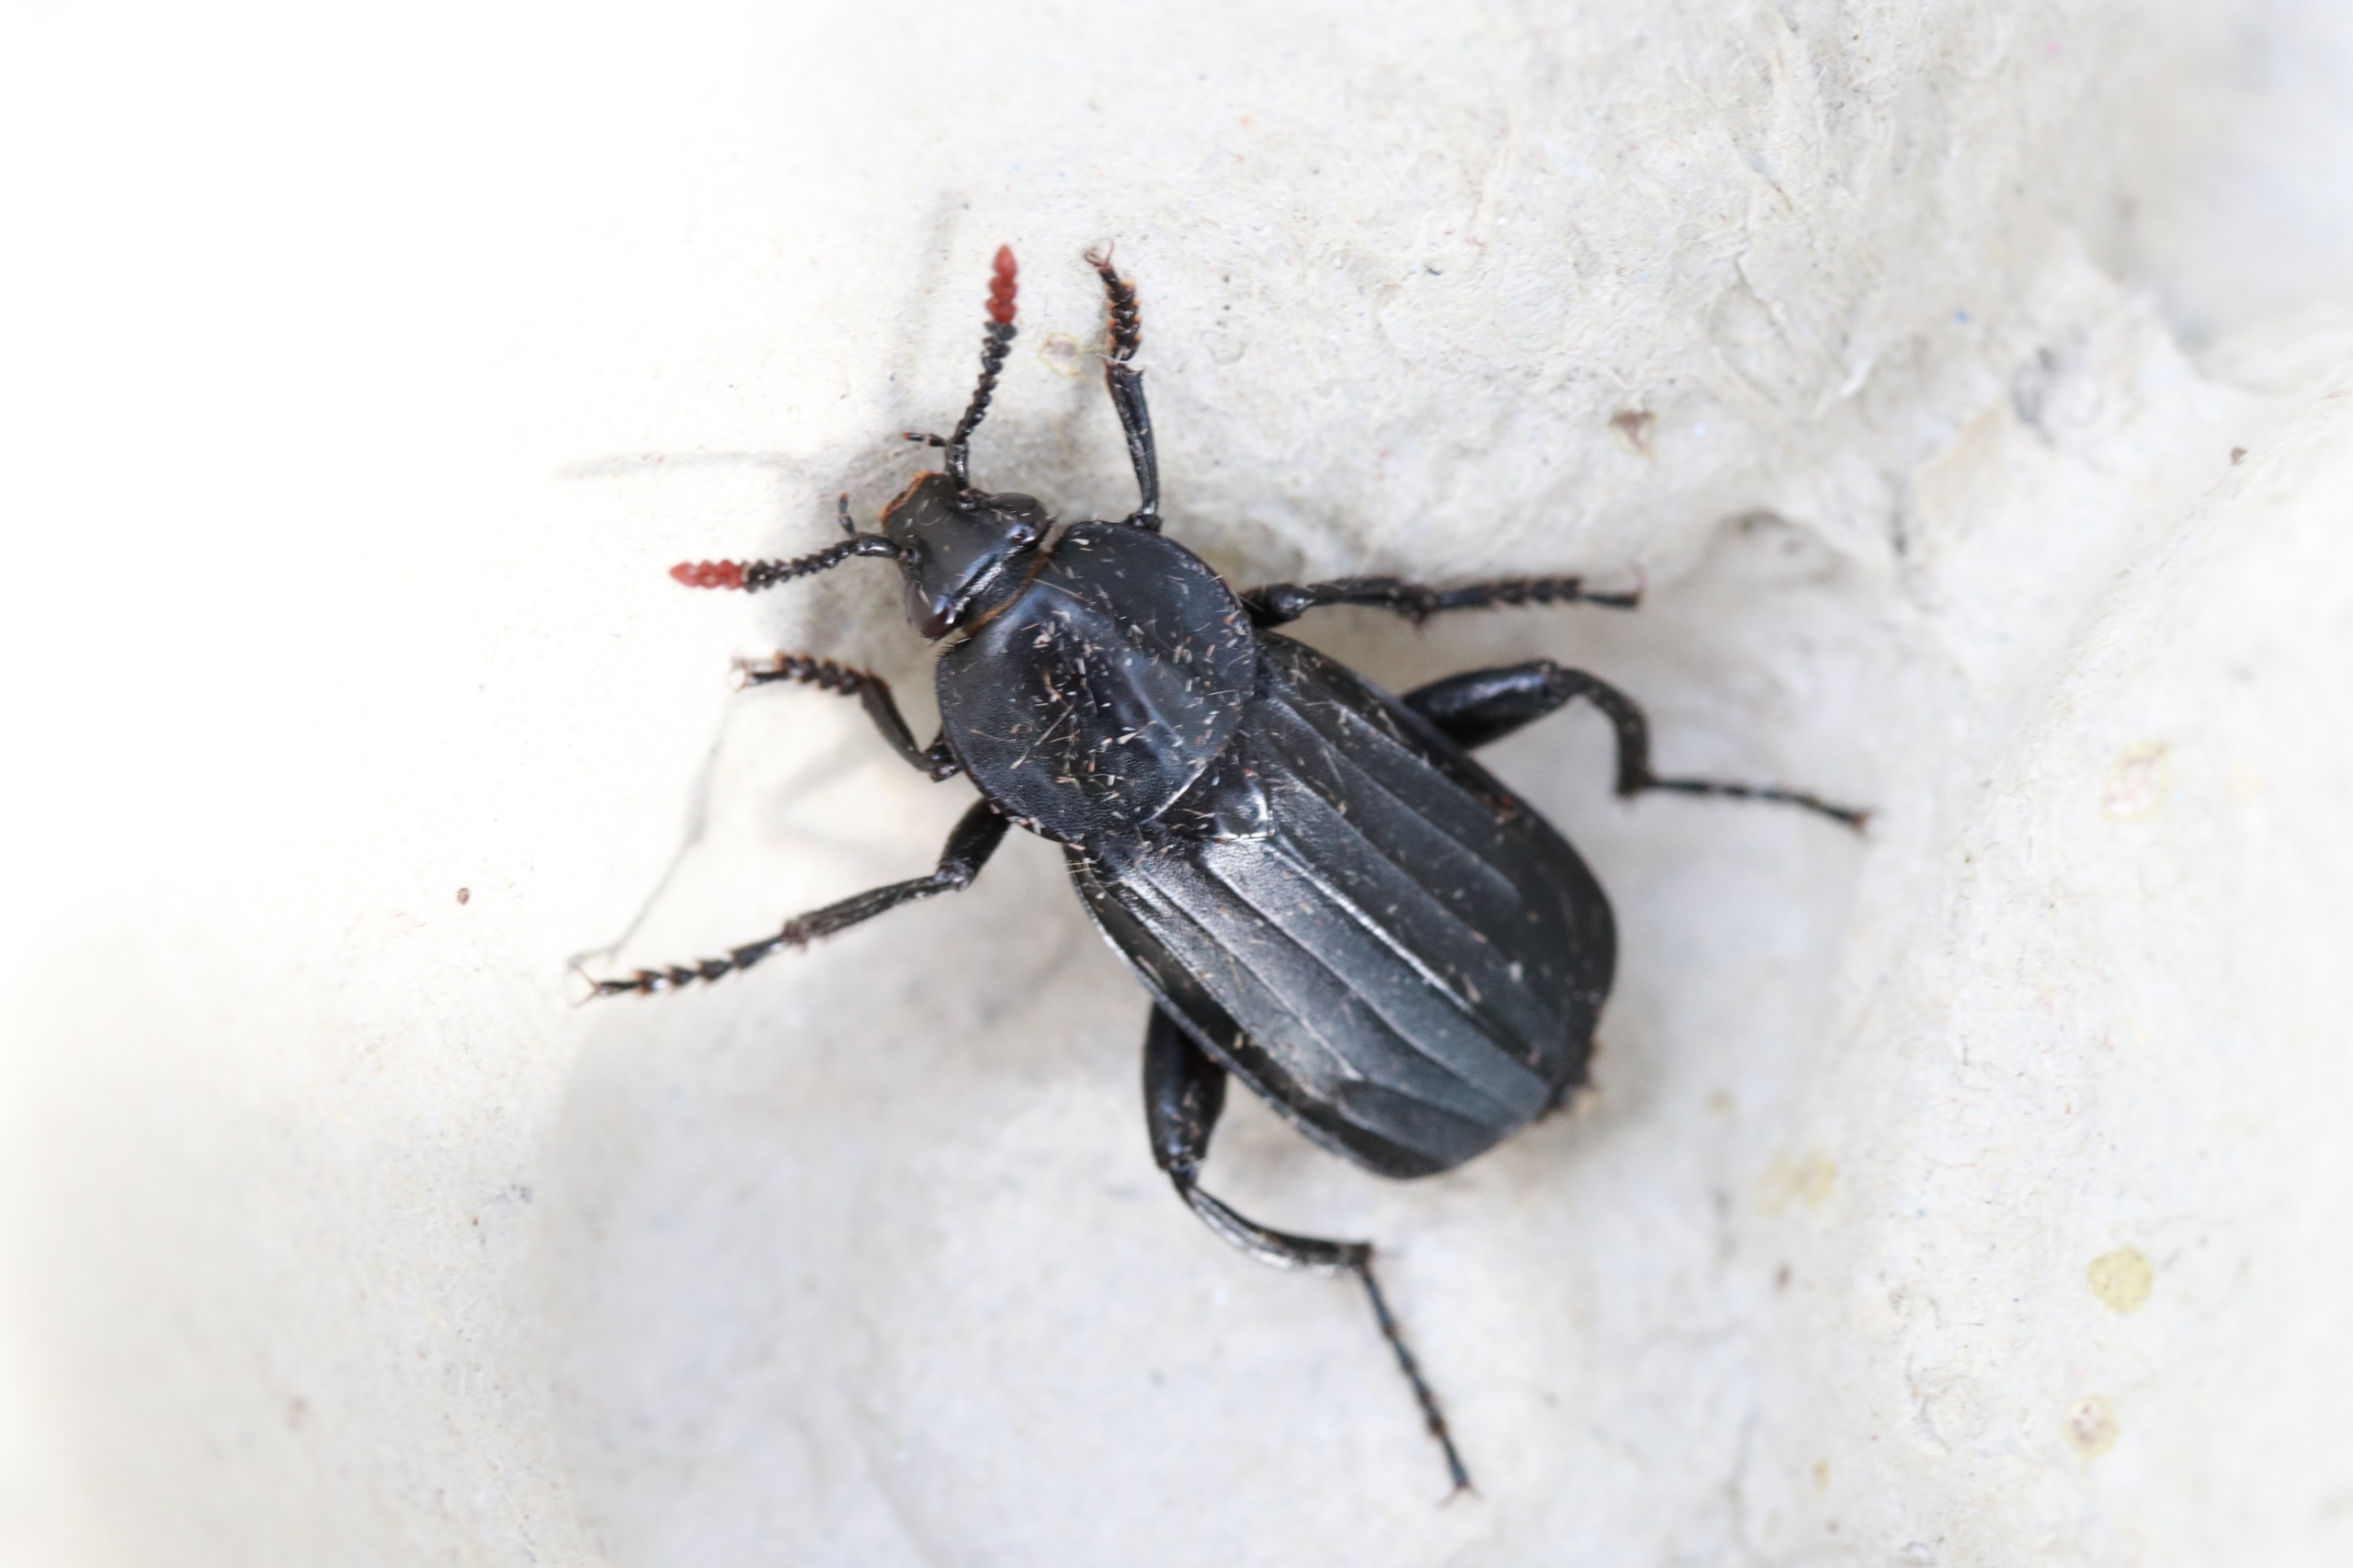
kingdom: Animalia
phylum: Arthropoda
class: Insecta
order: Coleoptera
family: Staphylinidae
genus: Necrodes
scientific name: Necrodes littoralis
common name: Ligrøver
